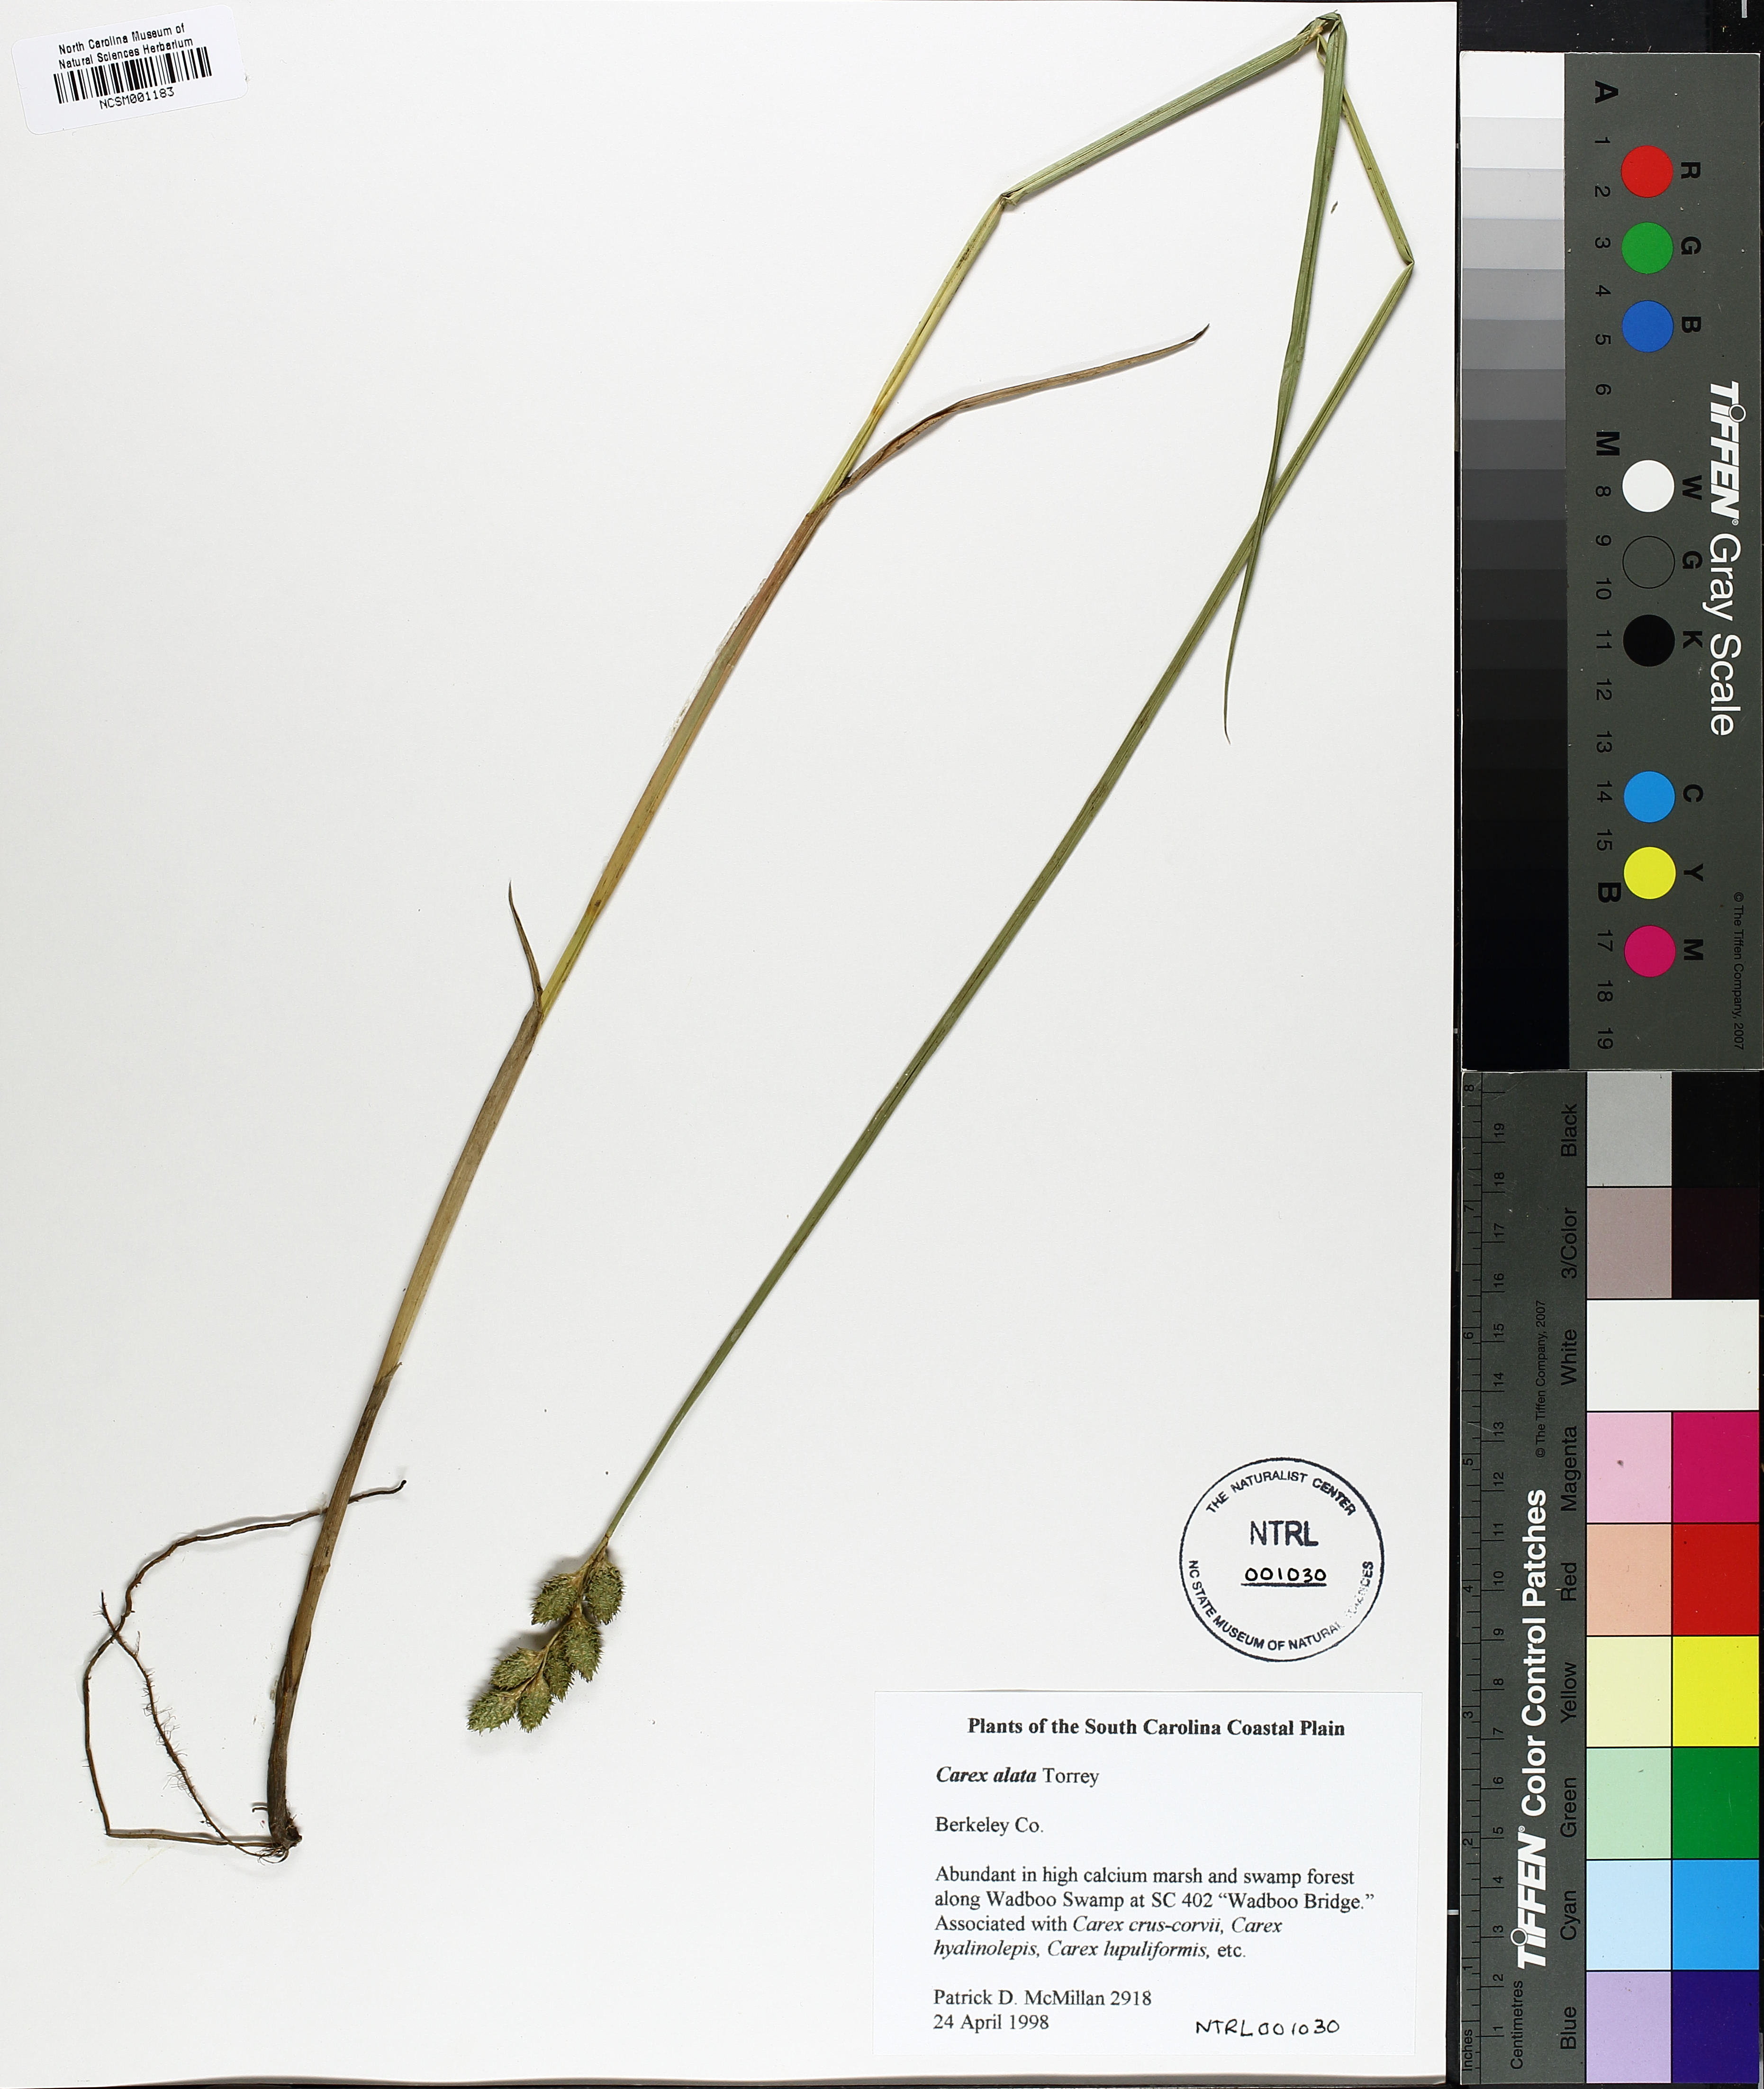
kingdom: Plantae
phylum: Tracheophyta
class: Liliopsida
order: Poales
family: Cyperaceae
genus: Carex
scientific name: Carex alata
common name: Broad-winged sedge
